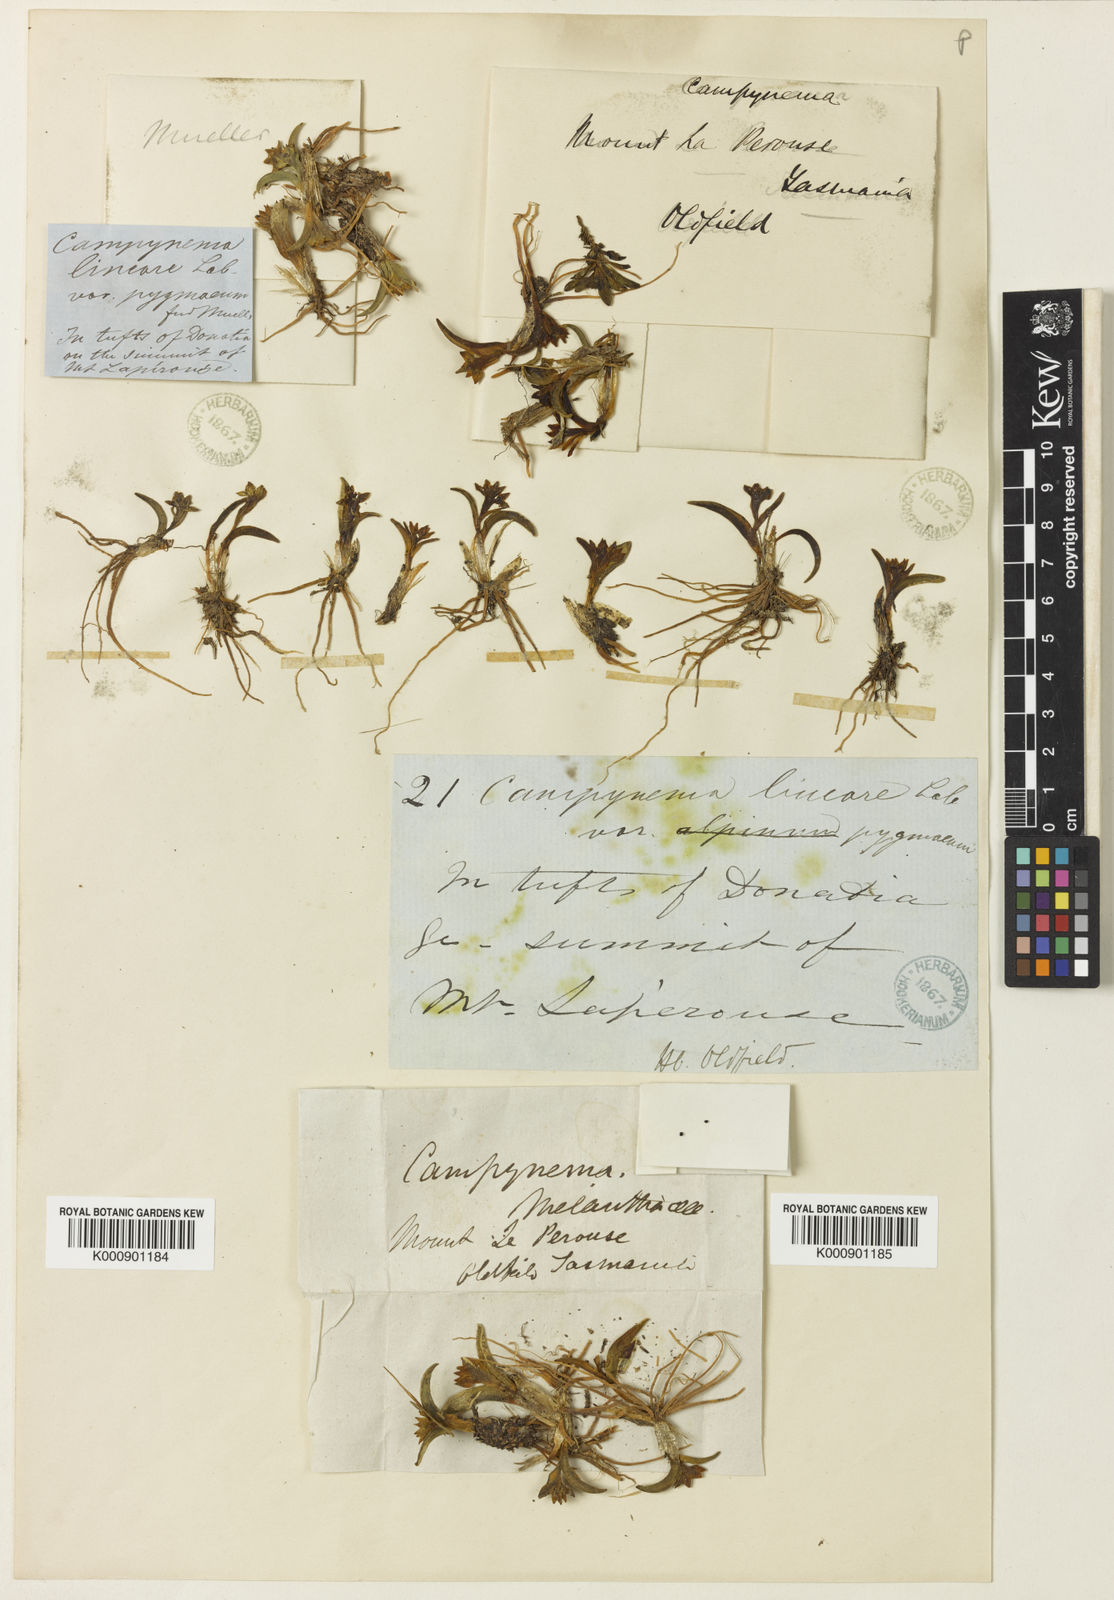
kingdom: Plantae
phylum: Tracheophyta
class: Liliopsida
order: Liliales
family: Campynemataceae
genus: Campynema
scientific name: Campynema lineare
